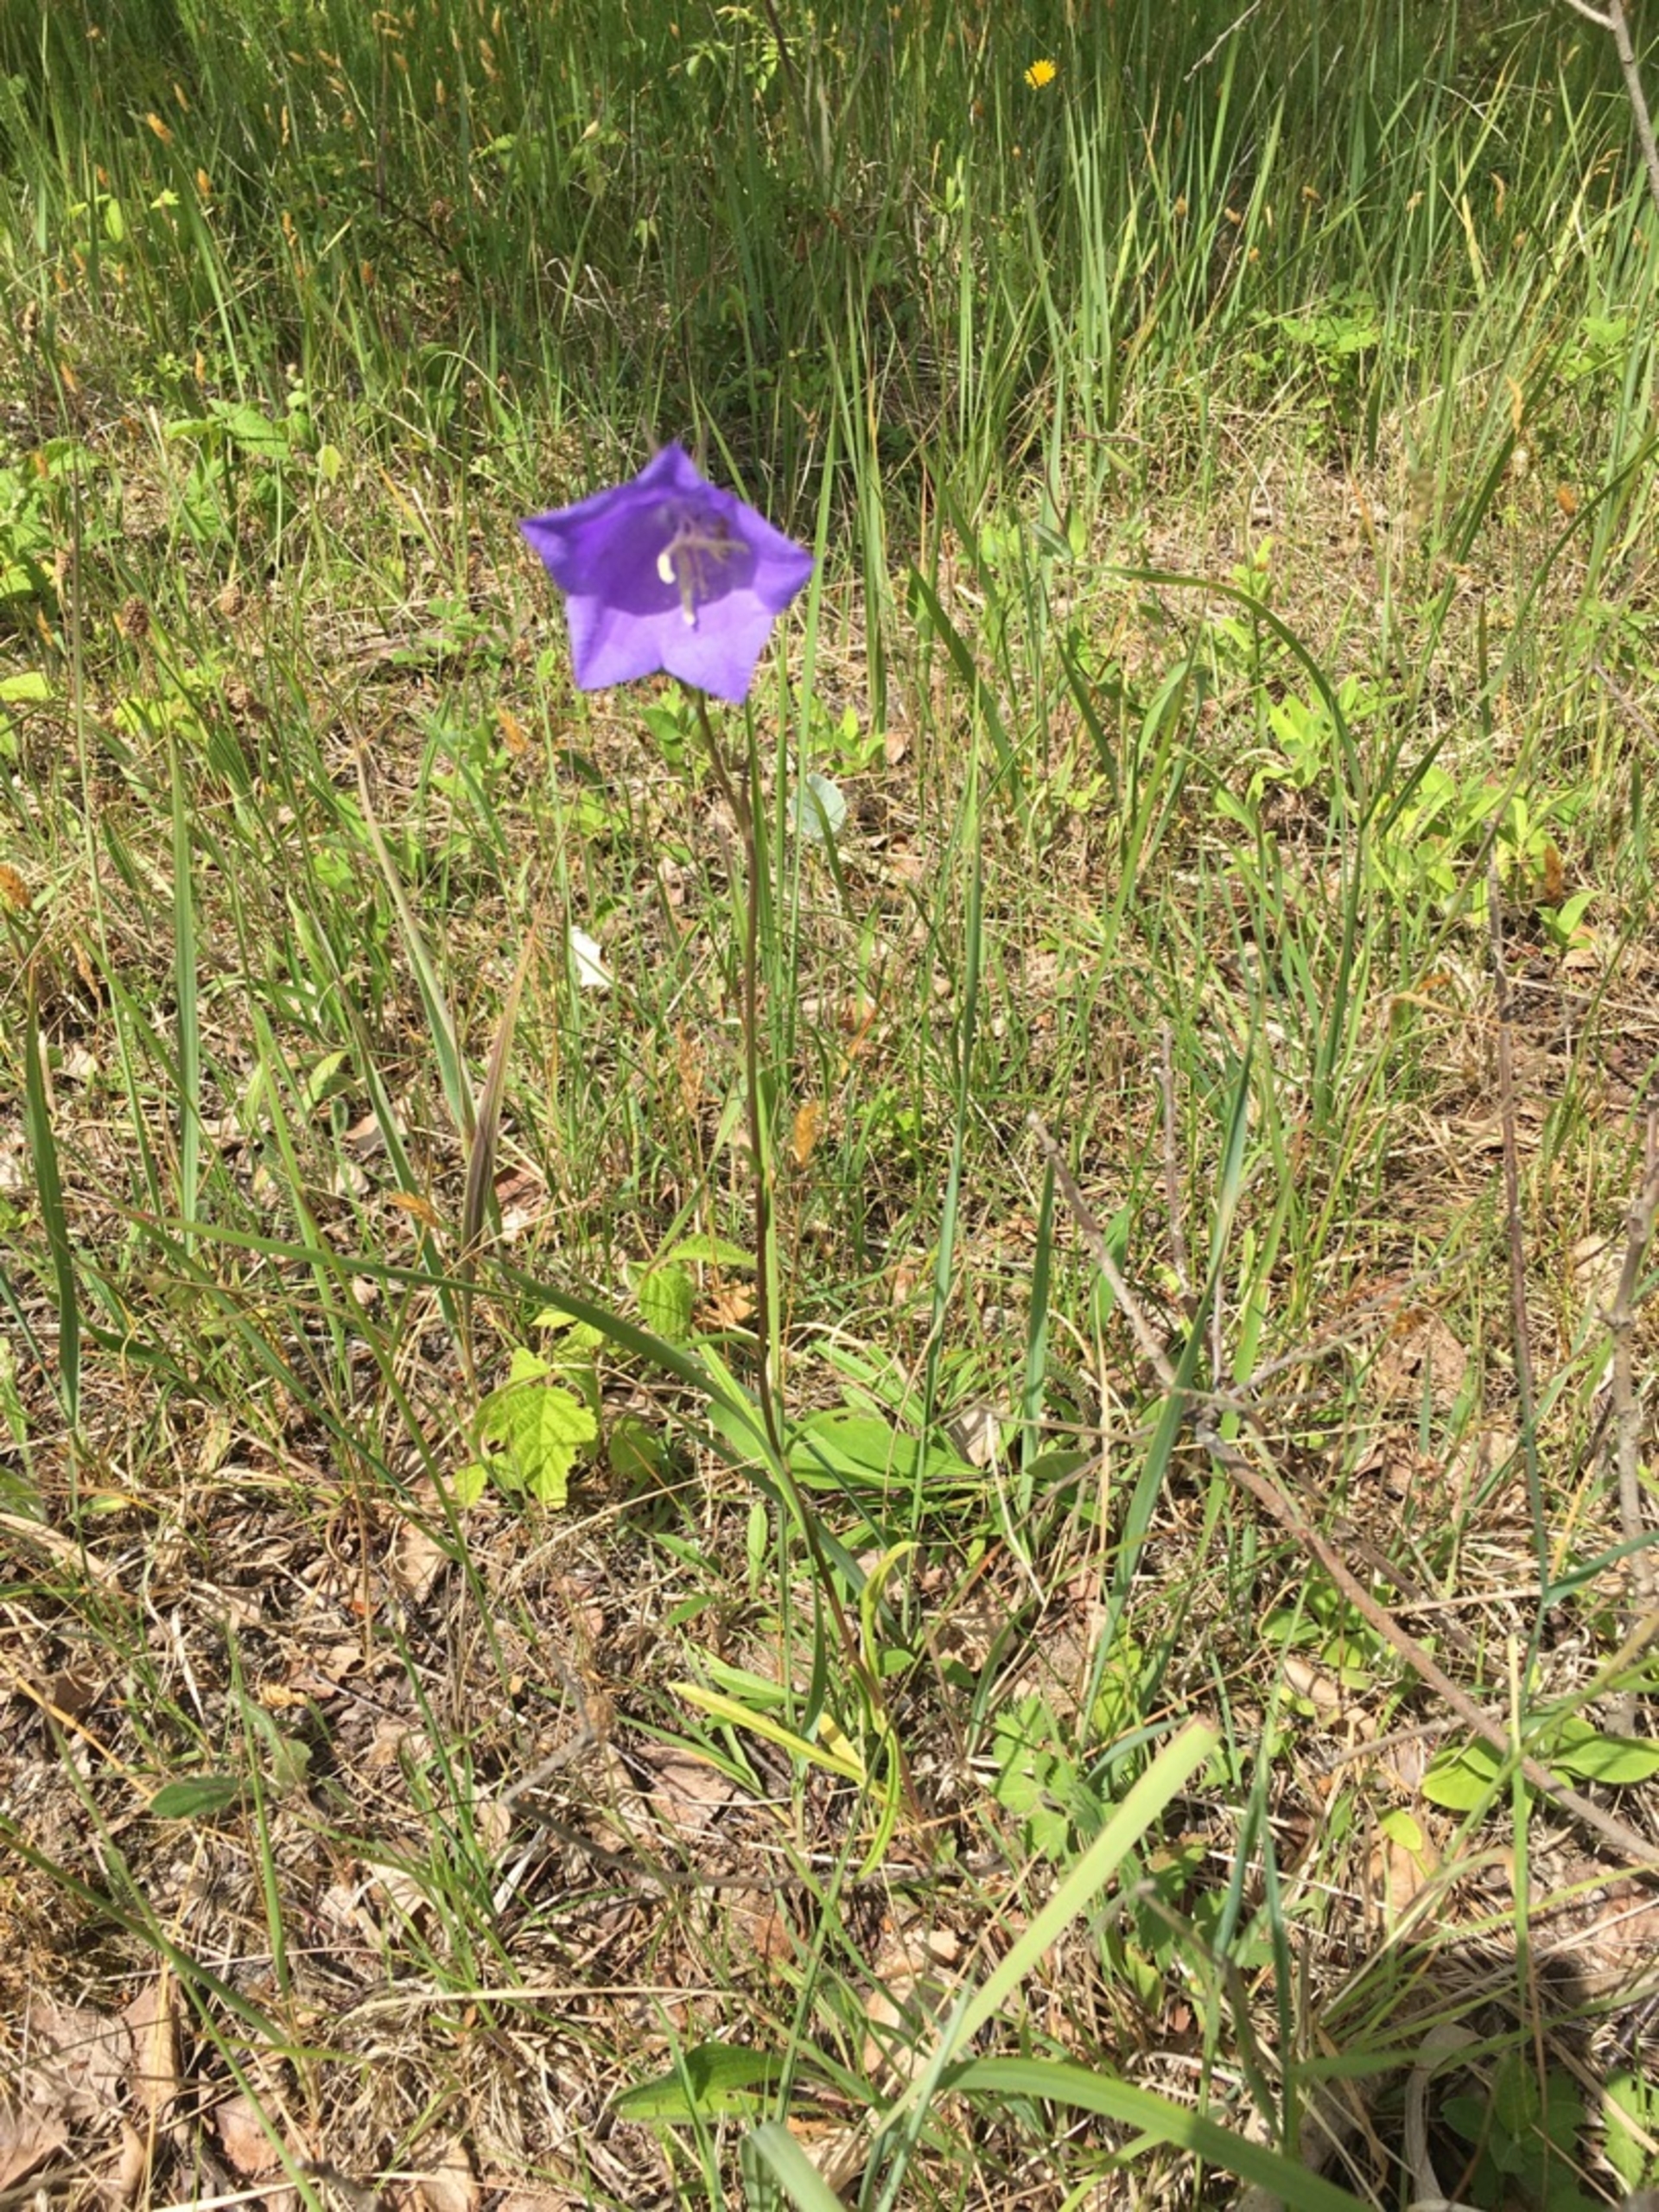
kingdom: Plantae
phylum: Tracheophyta
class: Magnoliopsida
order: Asterales
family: Campanulaceae
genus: Campanula
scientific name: Campanula persicifolia
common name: Smalbladet klokke
